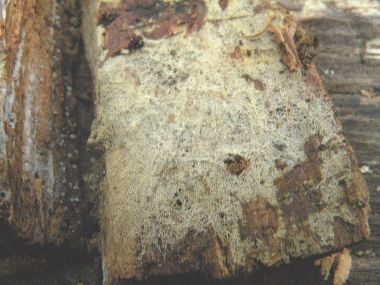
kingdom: Fungi
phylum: Basidiomycota
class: Agaricomycetes
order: Atheliales
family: Atheliaceae
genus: Tylospora
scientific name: Tylospora fibrillosa
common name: vortesporet jordhinde
